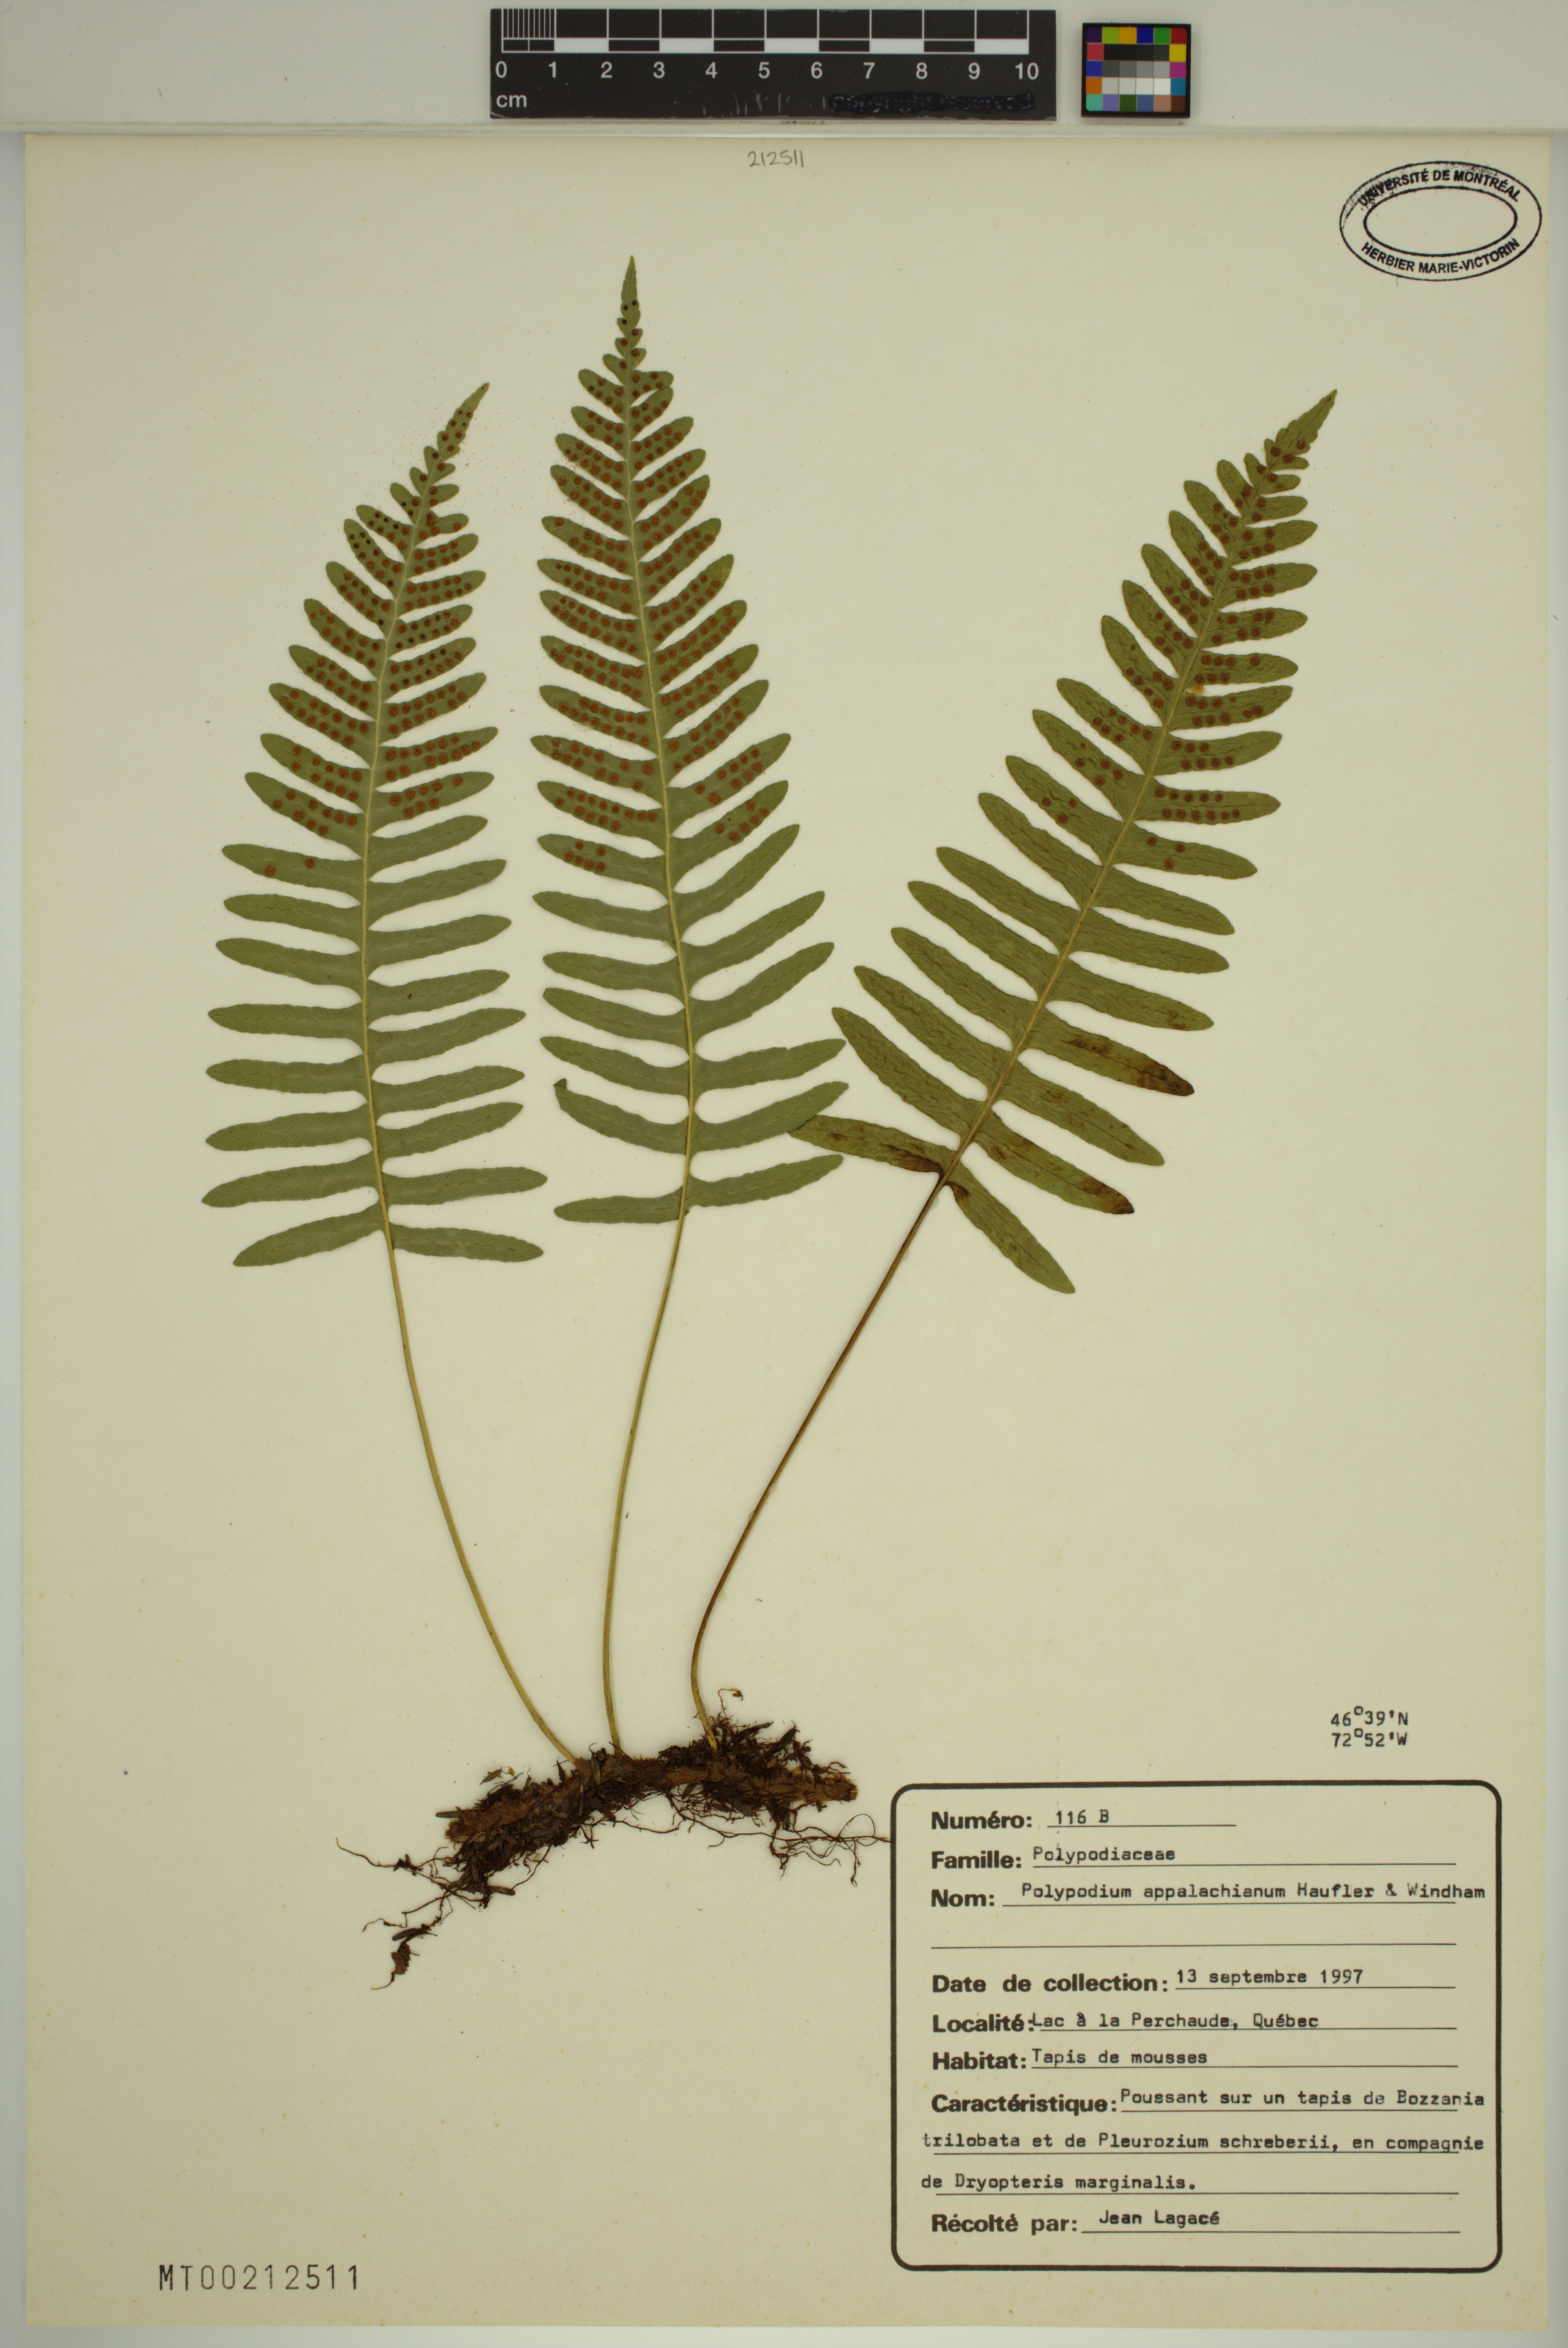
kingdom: Plantae
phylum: Tracheophyta
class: Polypodiopsida
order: Polypodiales
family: Polypodiaceae
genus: Polypodium
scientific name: Polypodium appalachianum
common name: Appalachian polypody
